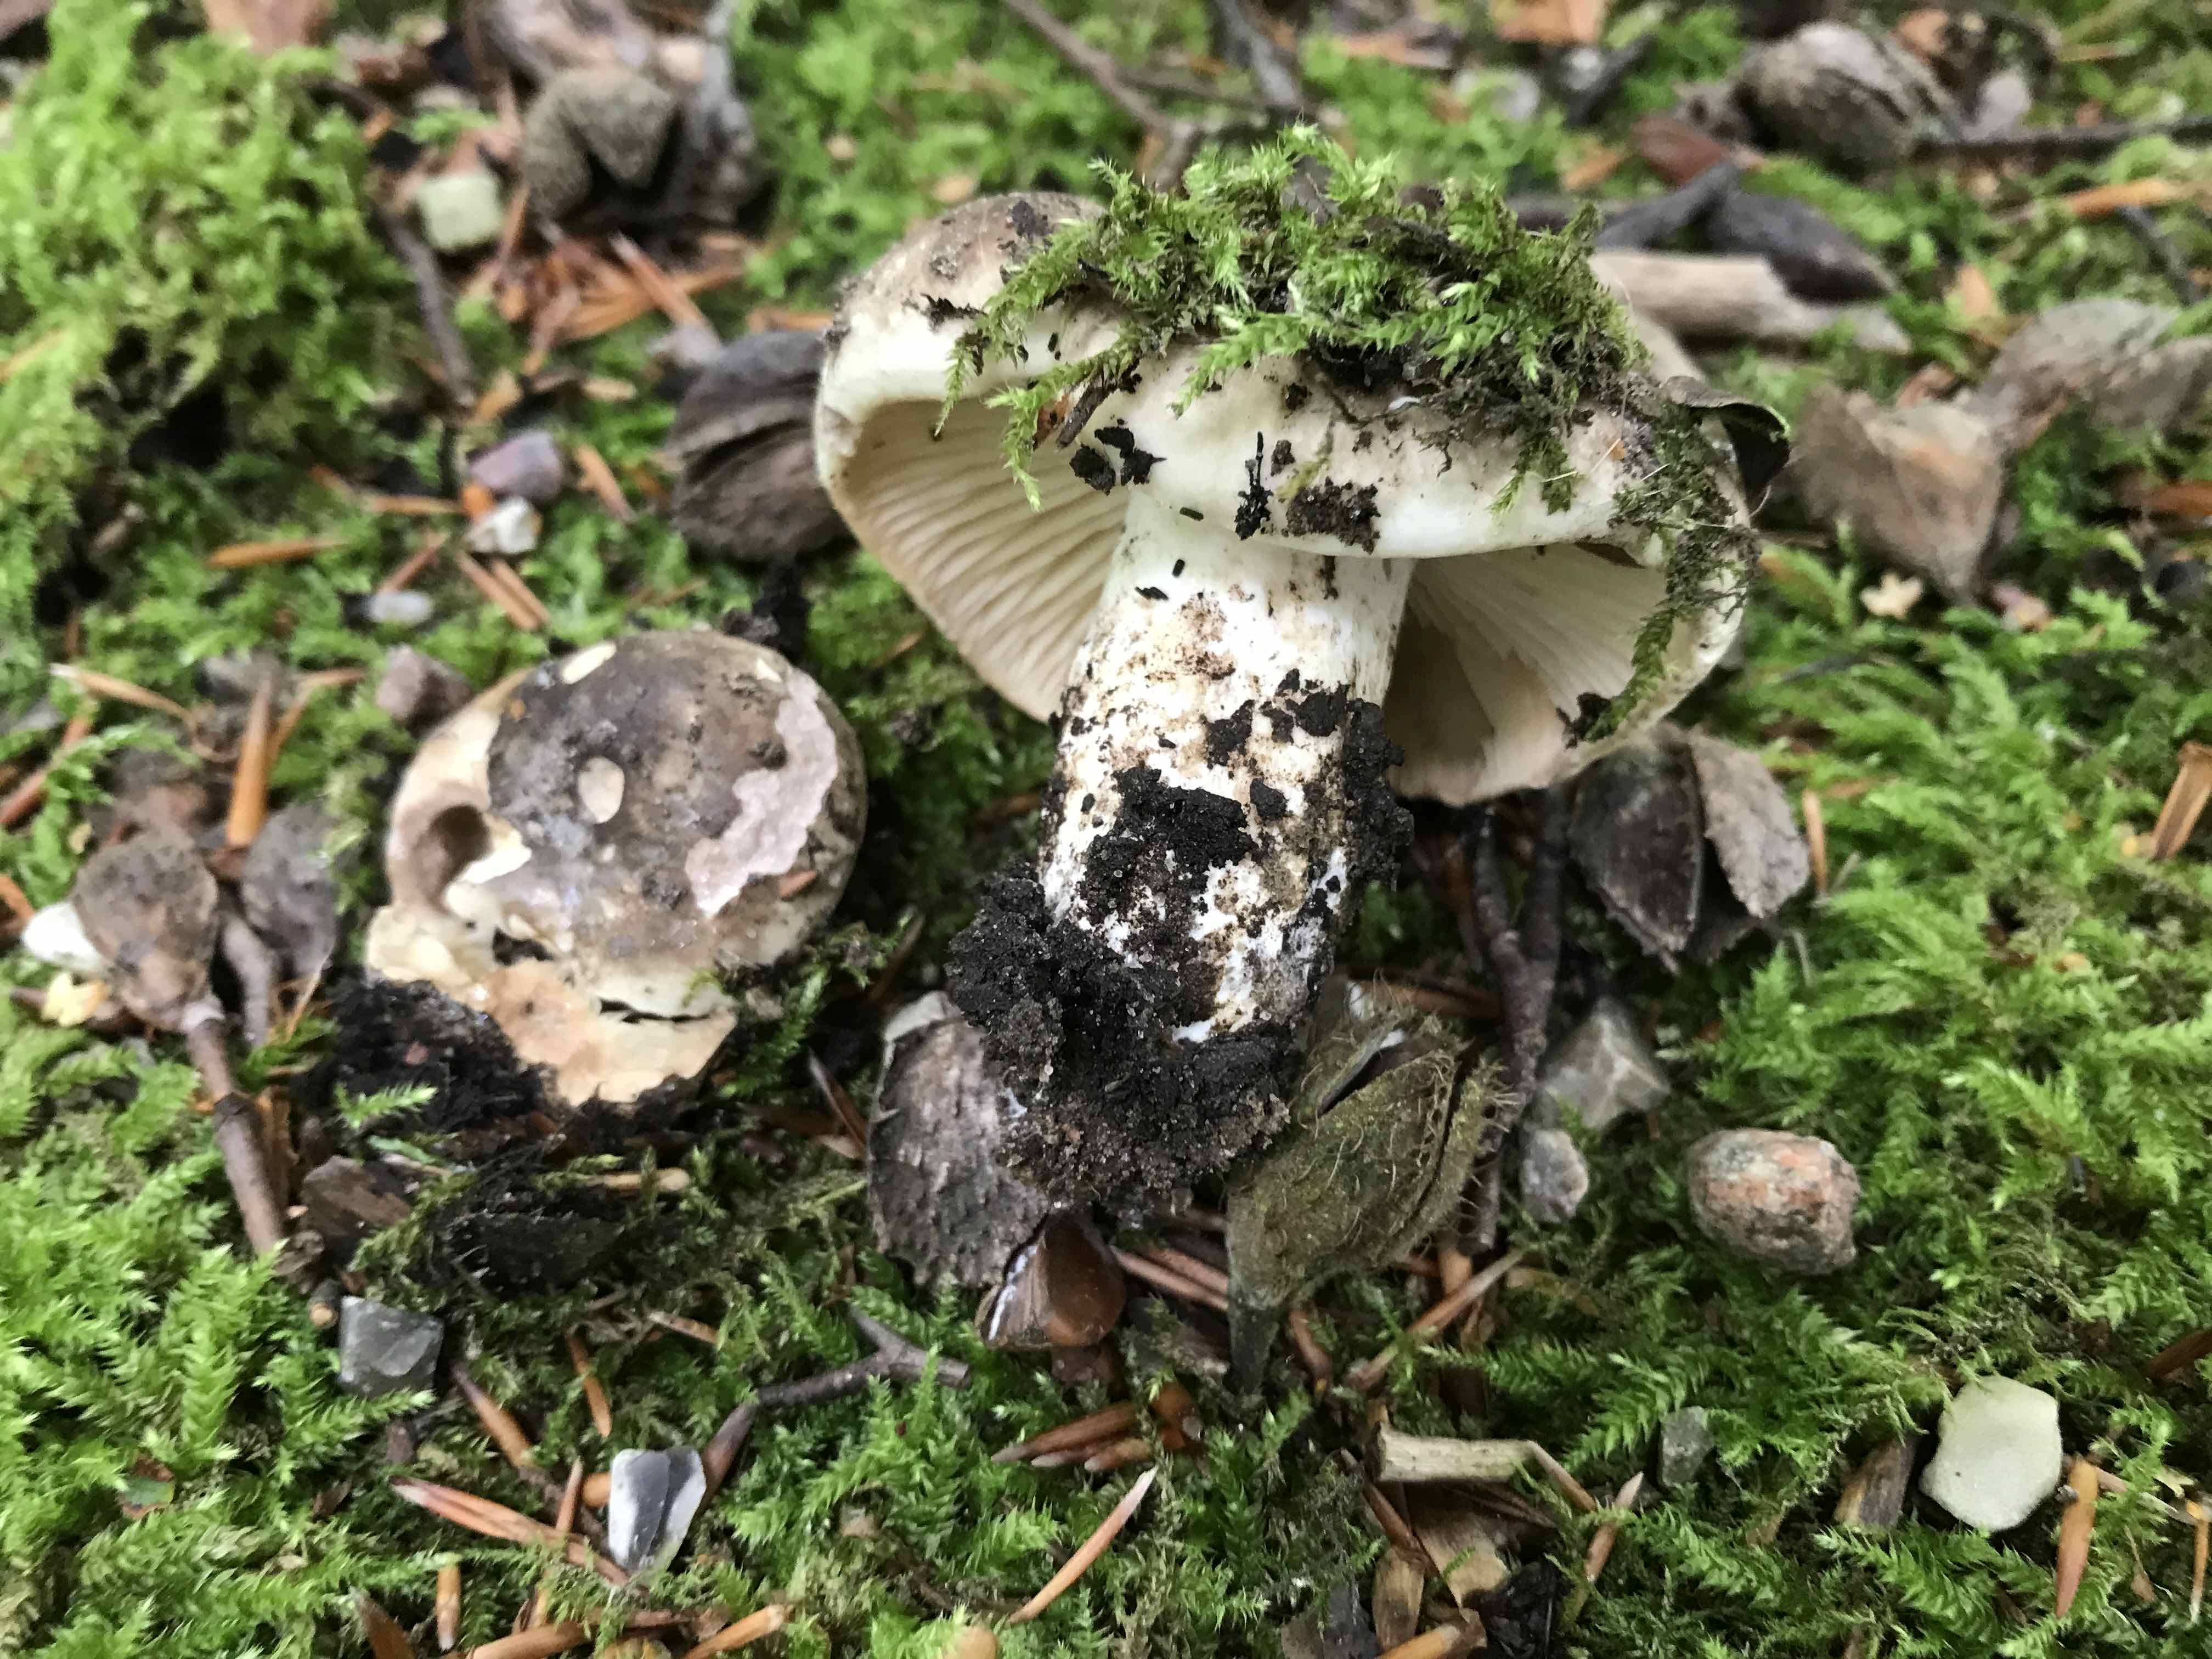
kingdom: Fungi
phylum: Basidiomycota
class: Agaricomycetes
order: Russulales
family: Russulaceae
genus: Russula
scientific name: Russula adusta
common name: sværtende skørhat
